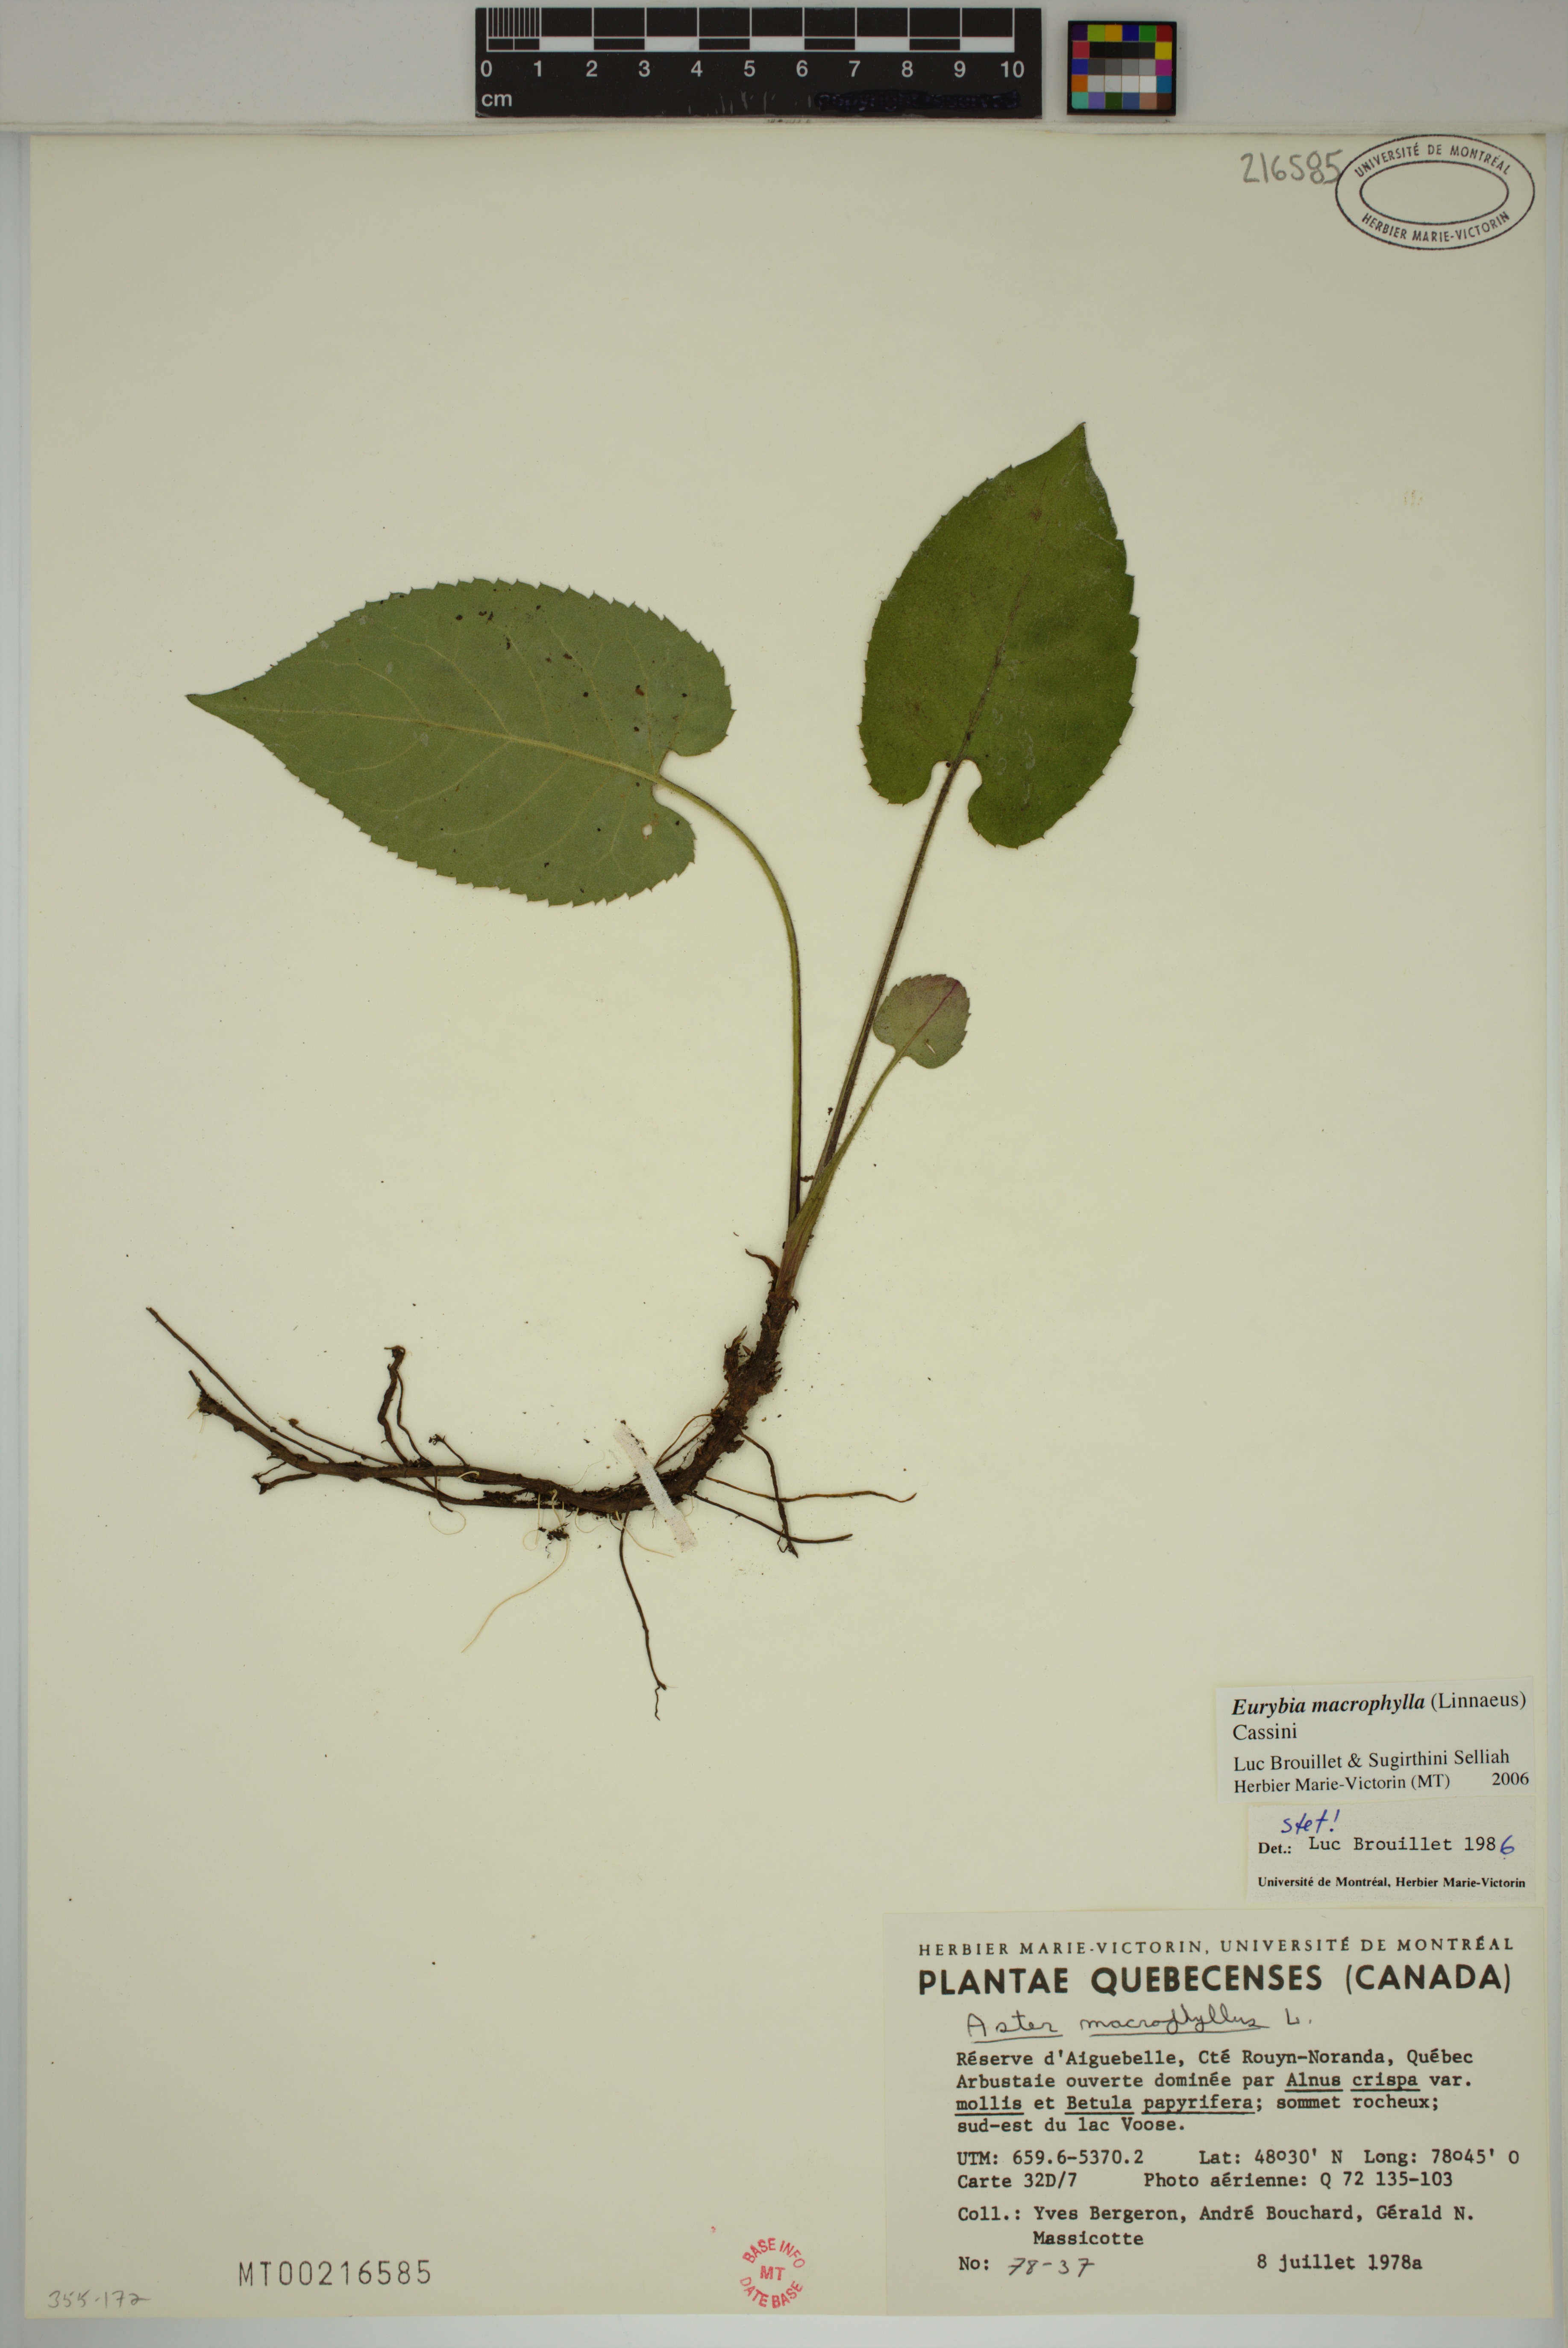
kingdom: Plantae
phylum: Tracheophyta
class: Magnoliopsida
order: Asterales
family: Asteraceae
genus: Eurybia
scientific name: Eurybia macrophylla
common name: Big-leaved aster
